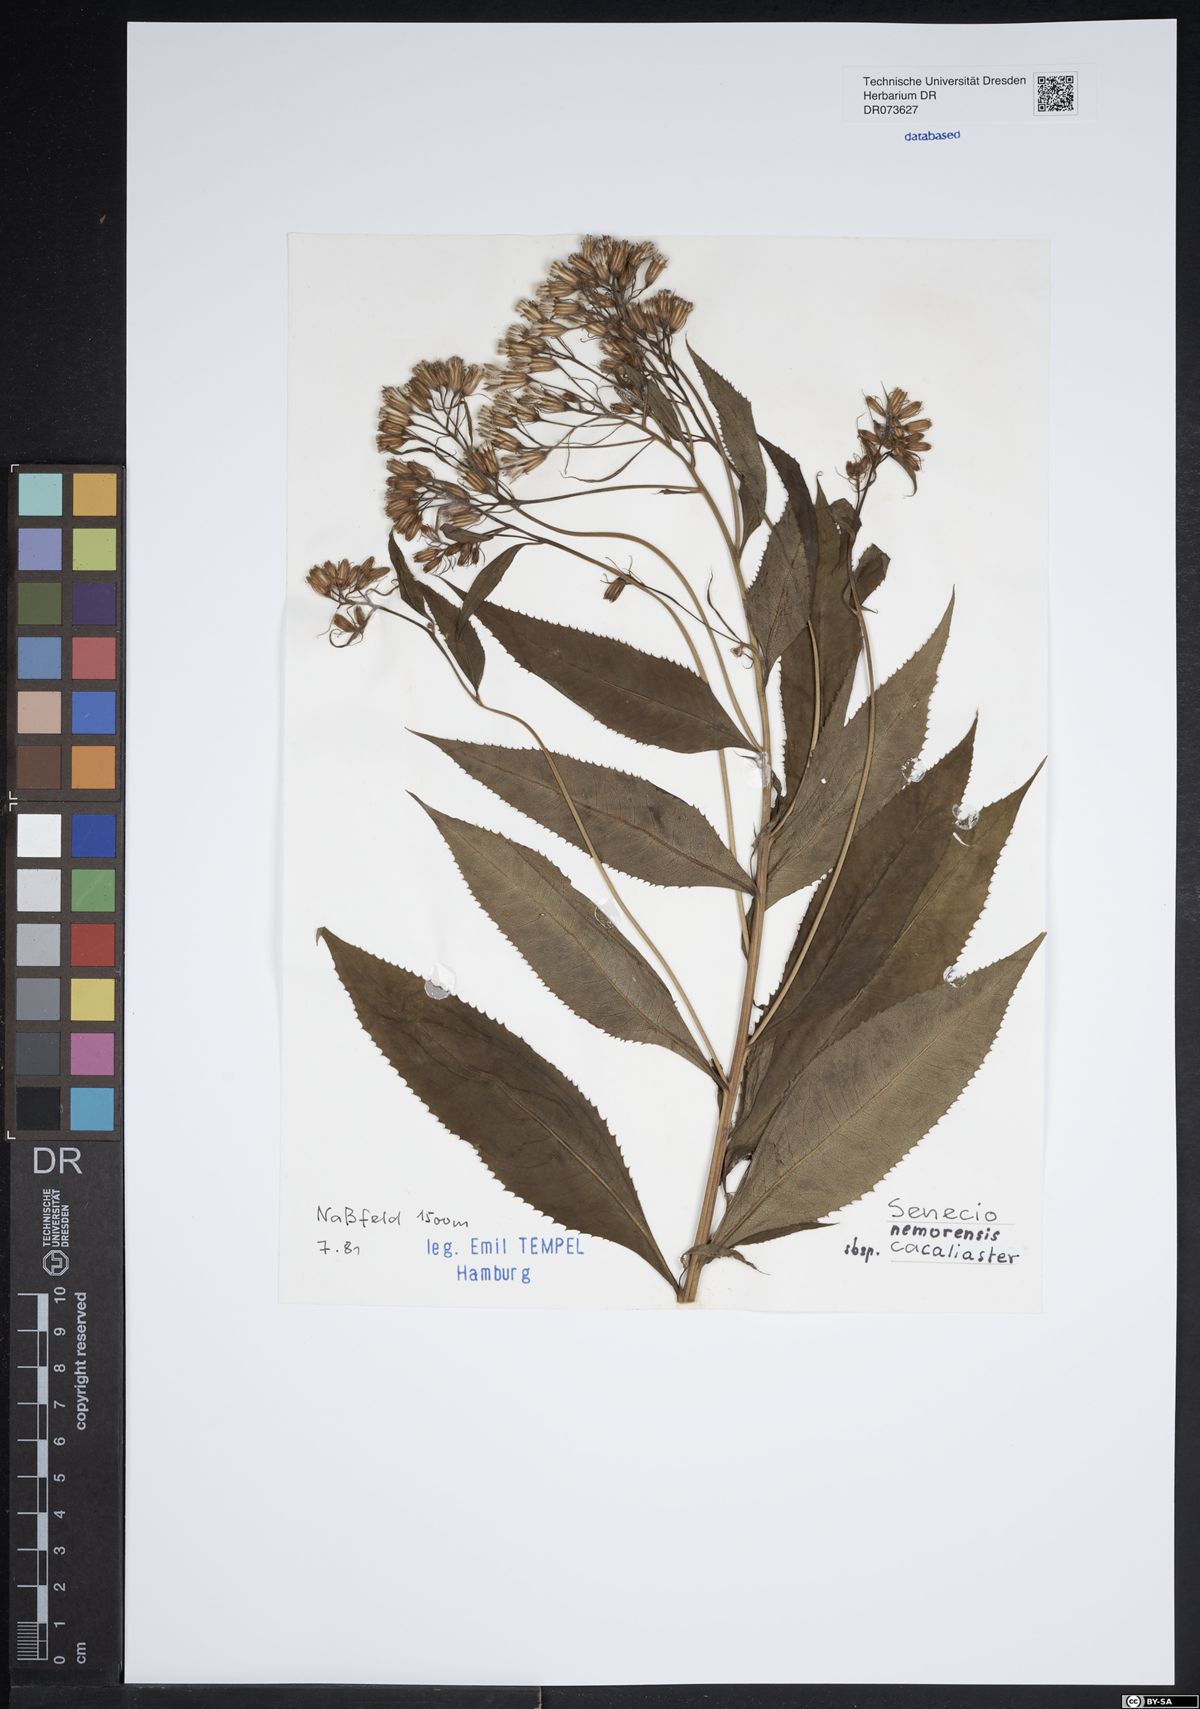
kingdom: Plantae
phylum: Tracheophyta
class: Magnoliopsida
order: Asterales
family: Asteraceae
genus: Senecio
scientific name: Senecio cacaliaster
